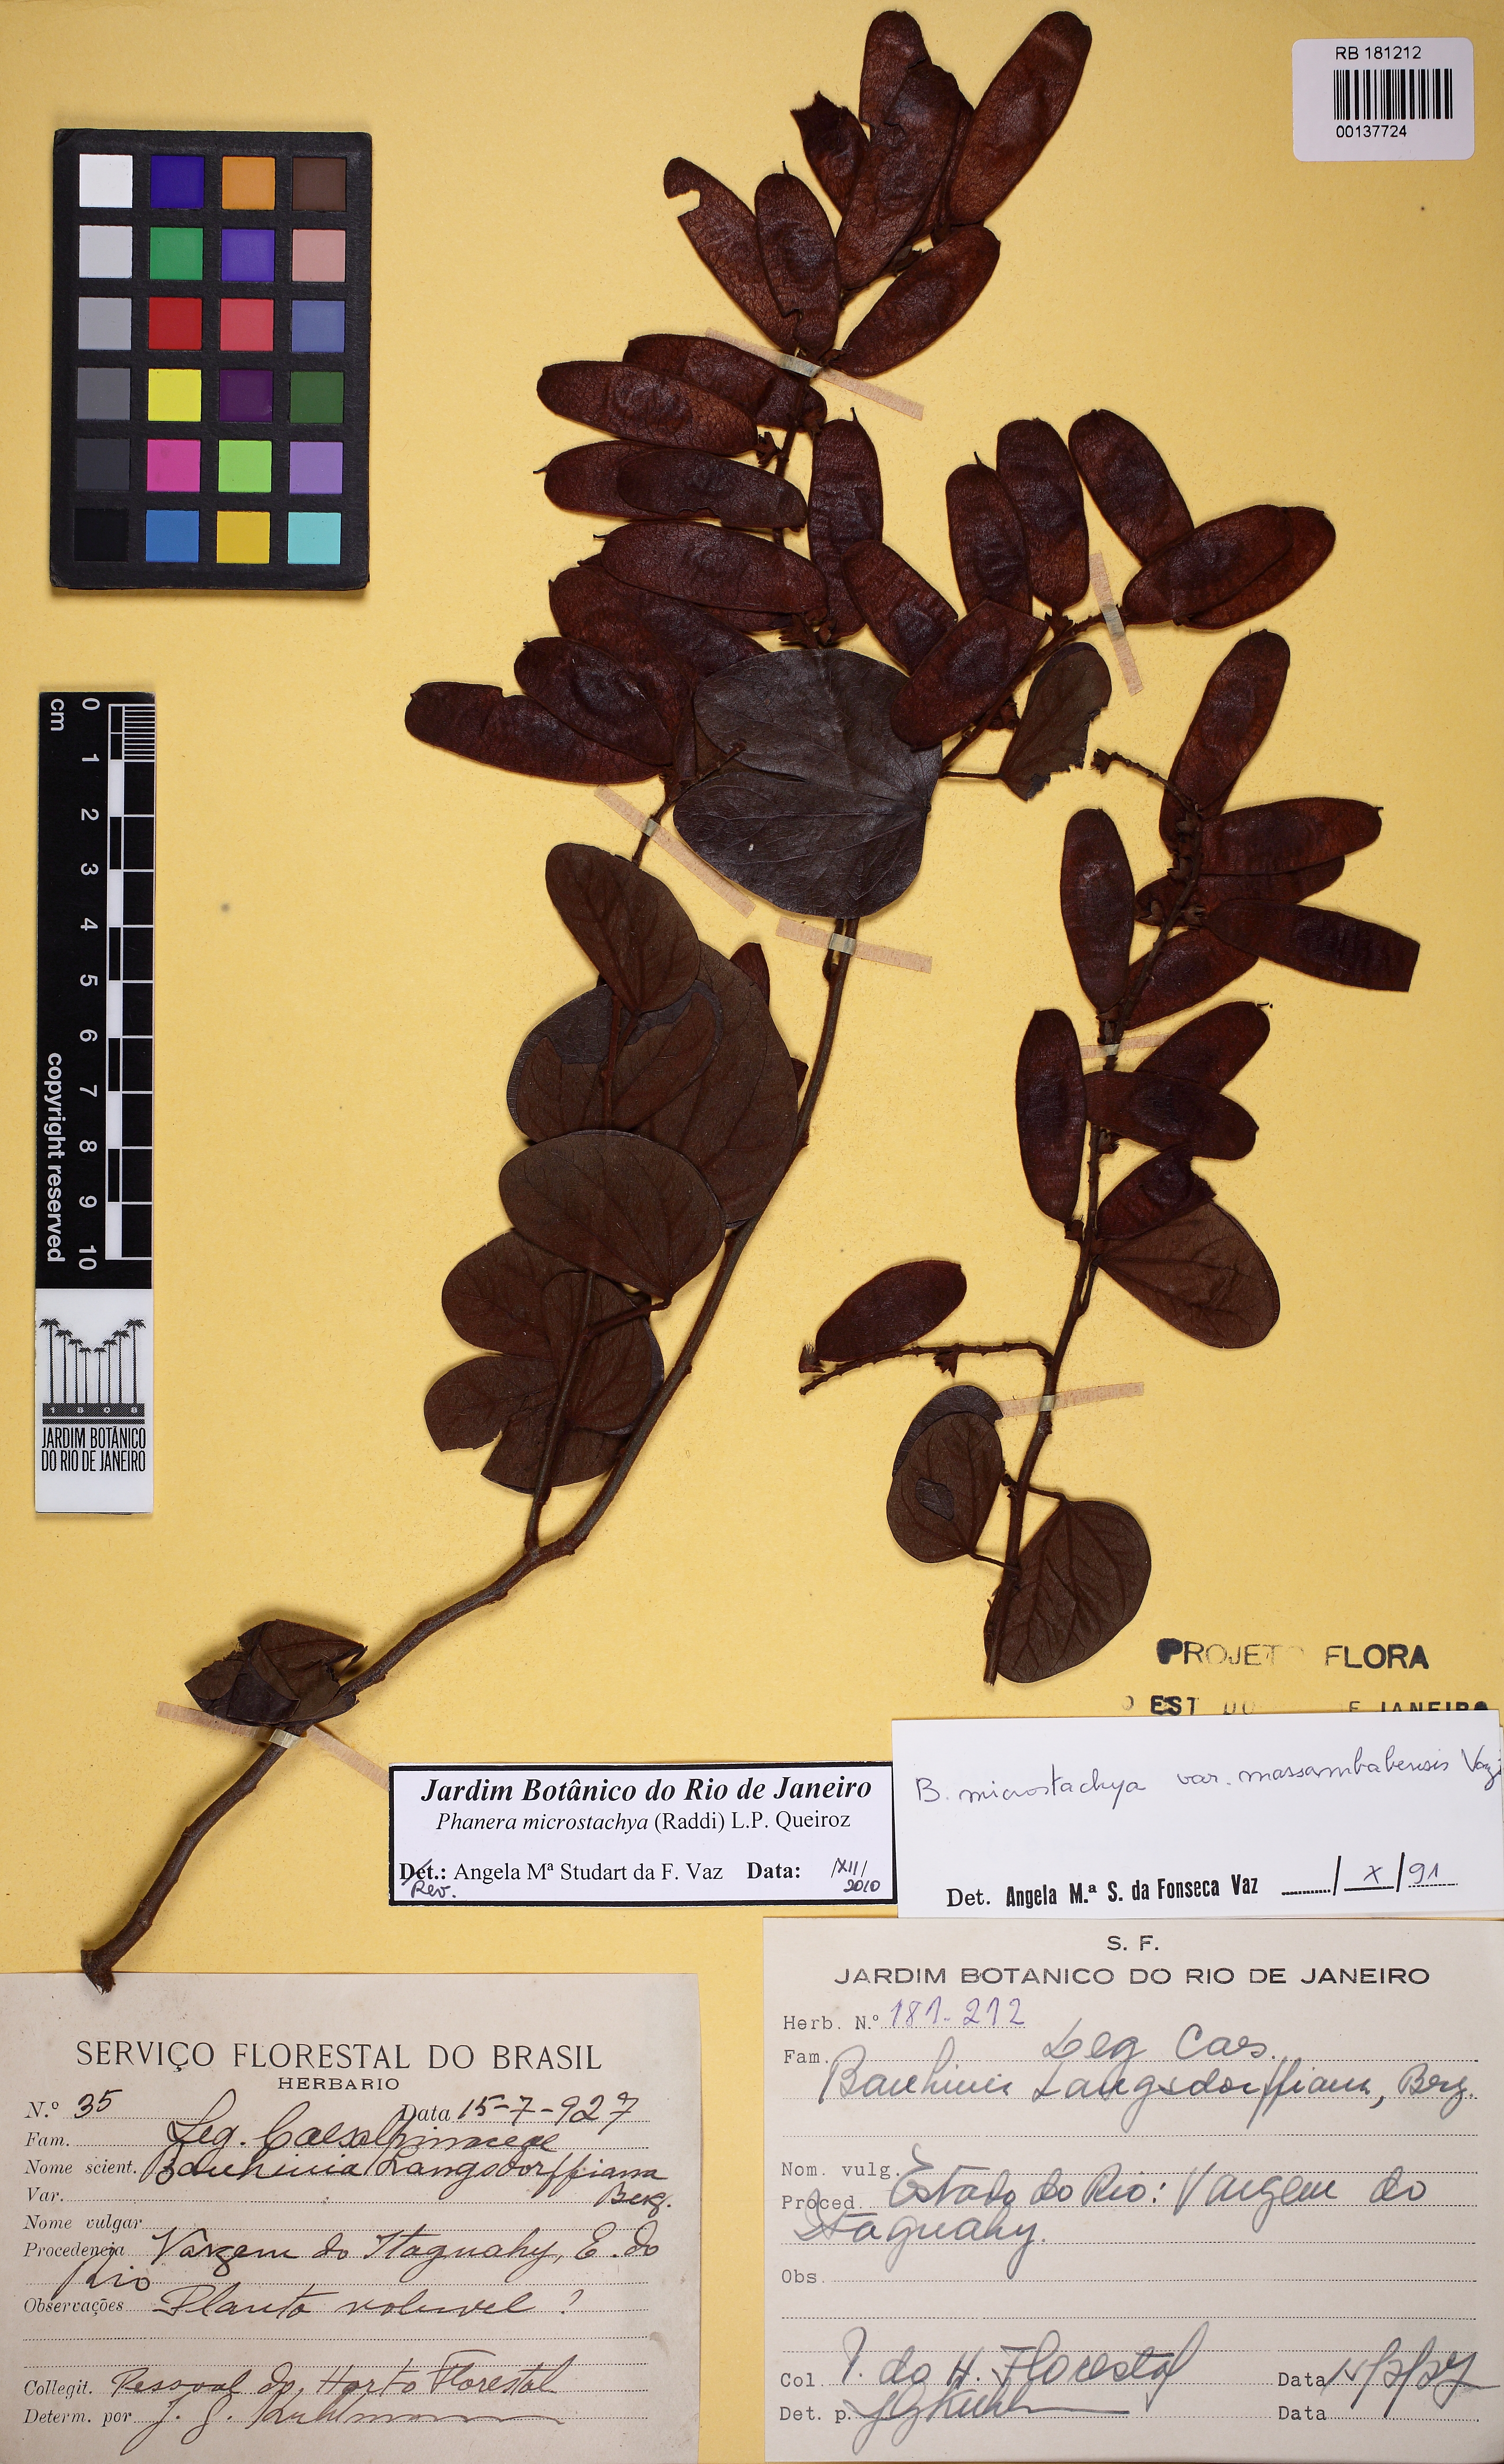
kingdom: Plantae
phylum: Tracheophyta
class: Magnoliopsida
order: Fabales
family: Fabaceae
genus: Schnella
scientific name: Schnella microstachya
